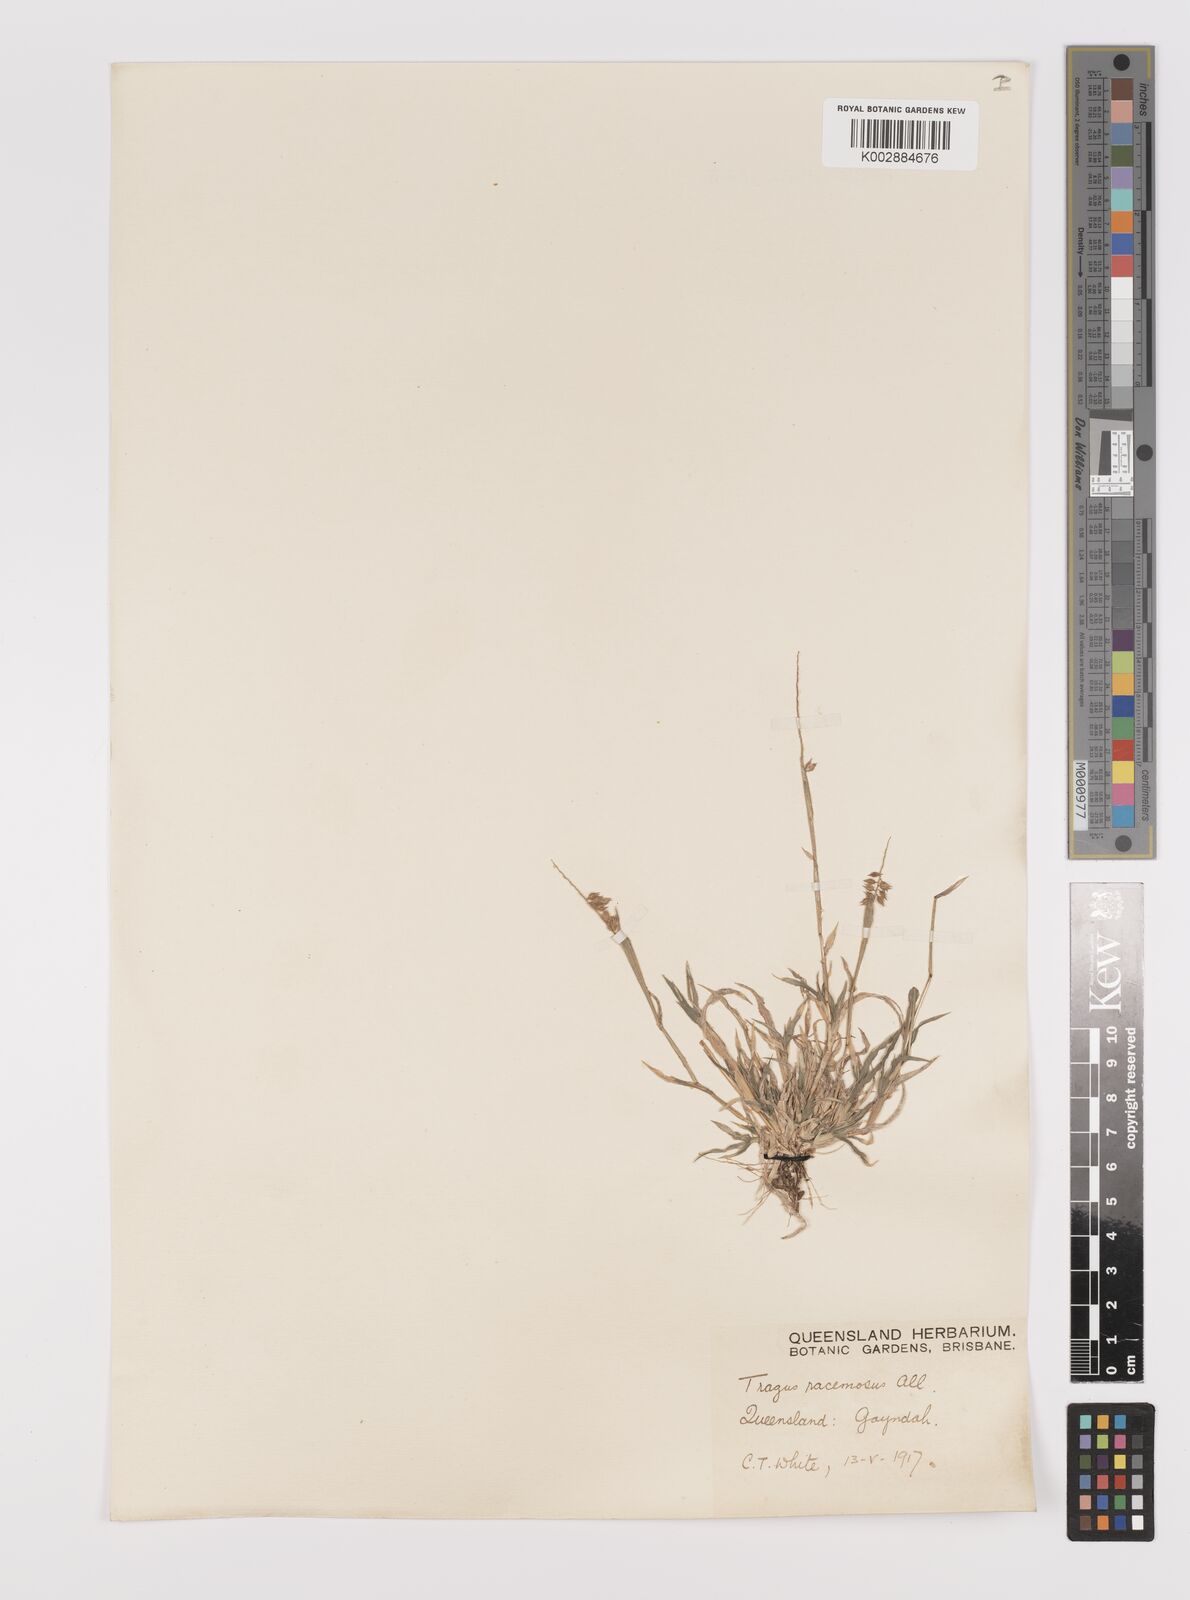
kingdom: Plantae
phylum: Tracheophyta
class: Liliopsida
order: Poales
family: Poaceae
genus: Tragus
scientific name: Tragus australianus
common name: Australian bur-grass
